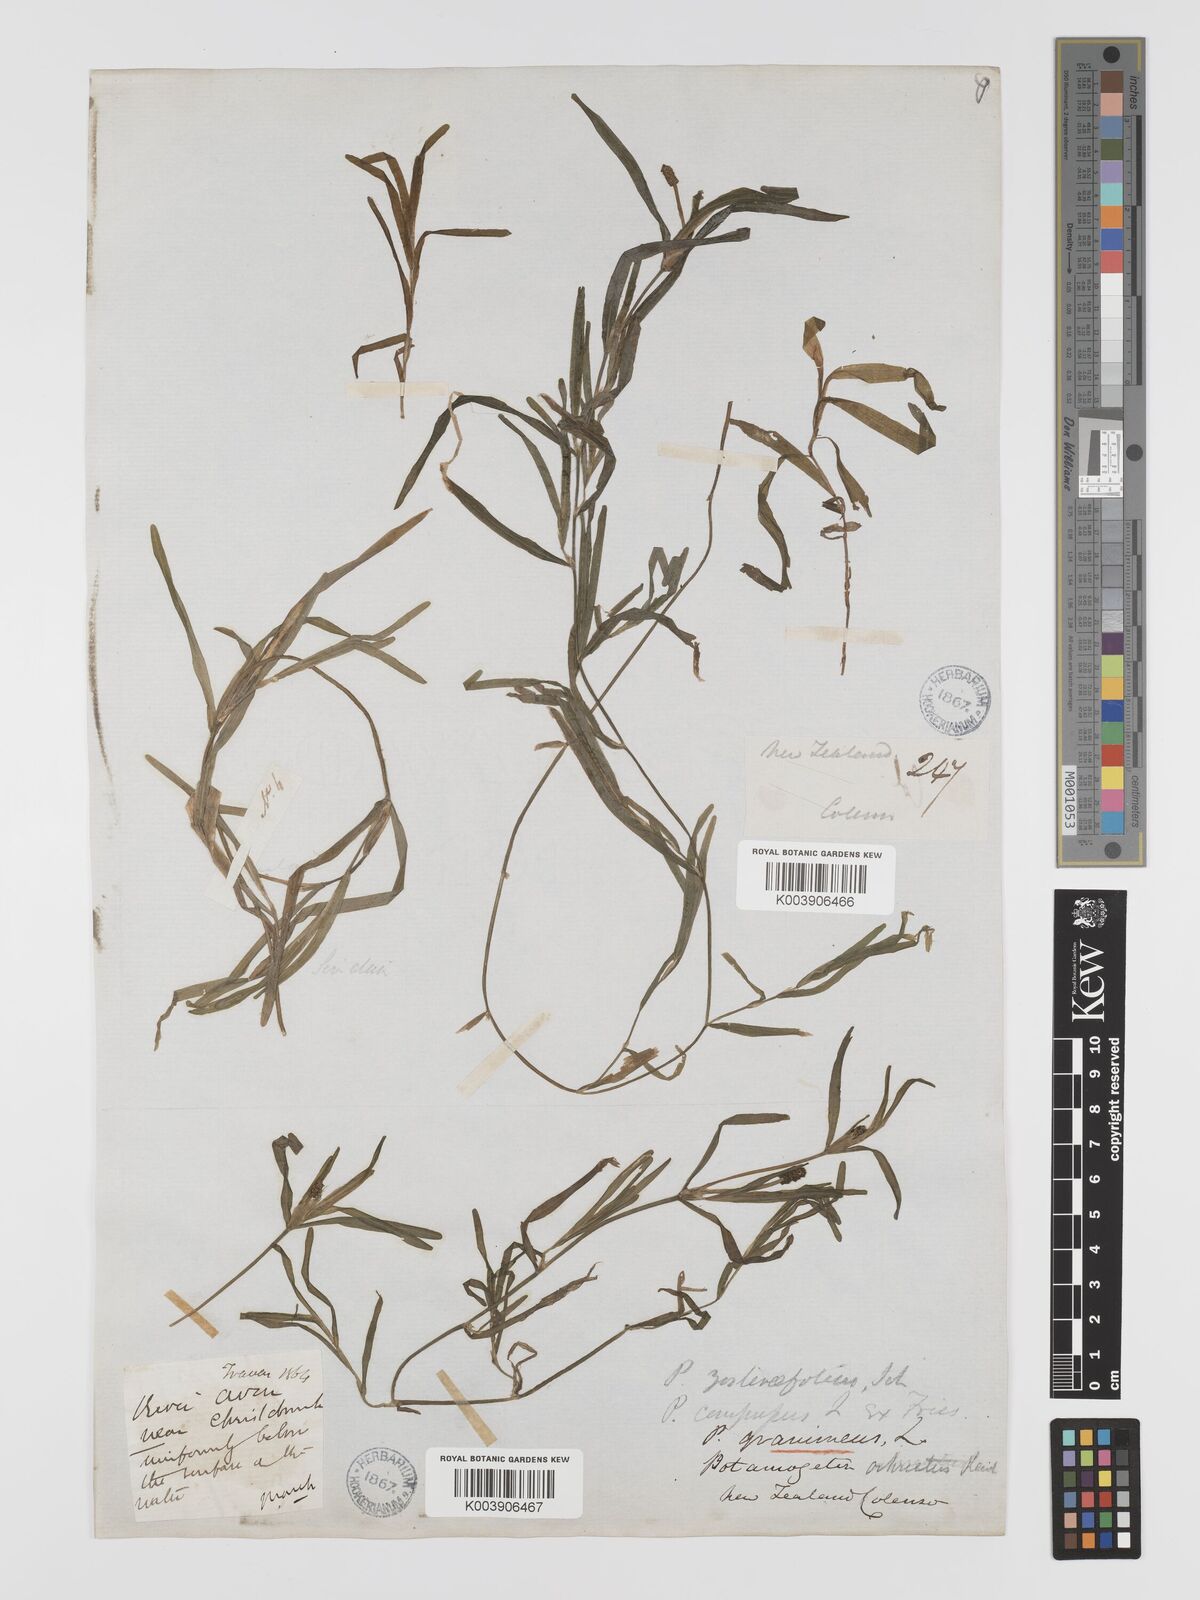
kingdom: Plantae
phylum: Tracheophyta
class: Liliopsida
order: Alismatales
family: Potamogetonaceae
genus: Potamogeton
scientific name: Potamogeton ochreatus
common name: Blunt pondweed
